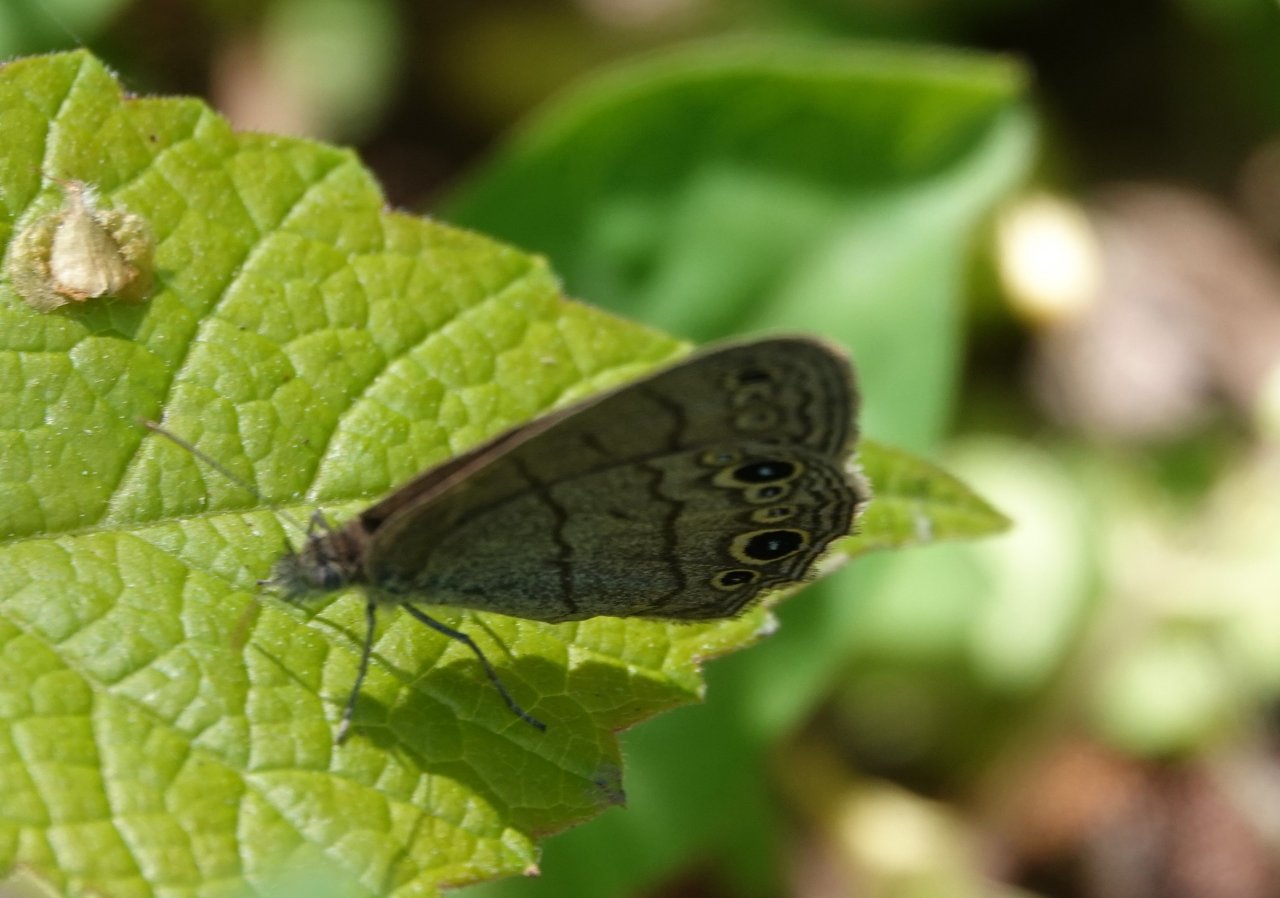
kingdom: Animalia
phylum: Arthropoda
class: Insecta
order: Lepidoptera
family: Nymphalidae
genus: Hermeuptychia
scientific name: Hermeuptychia hermes
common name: Carolina Satyr
